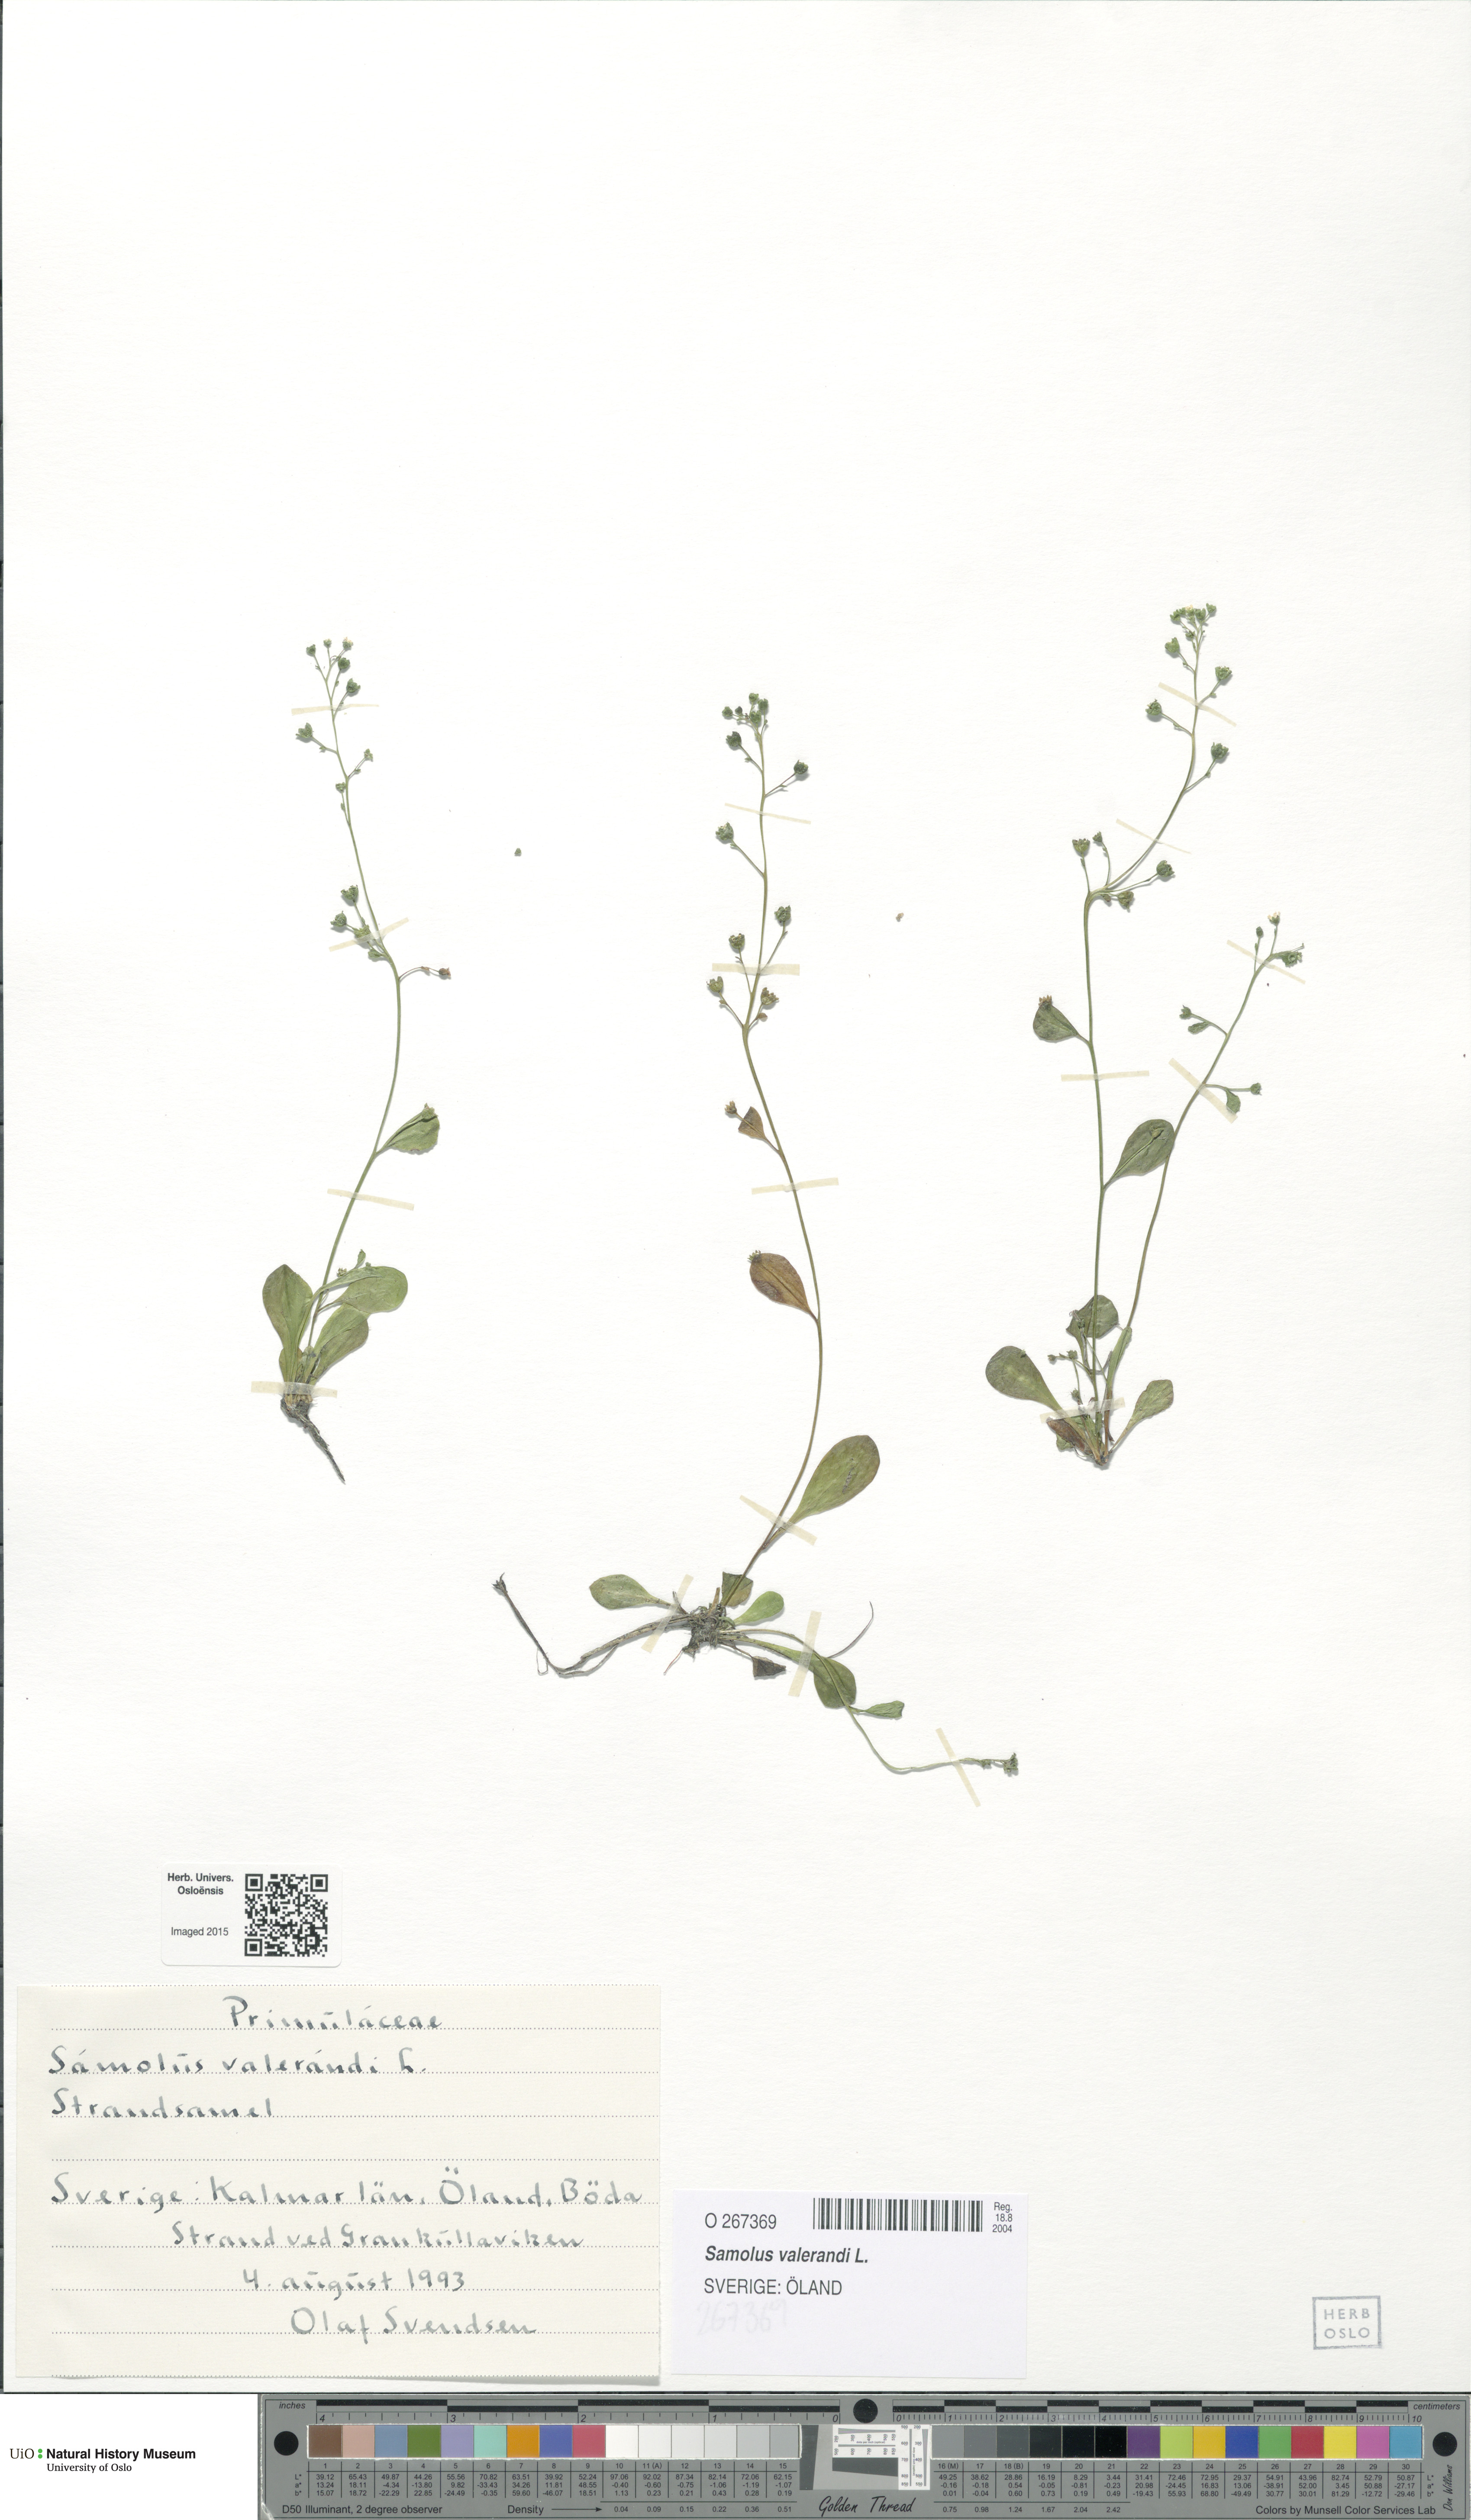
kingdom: Plantae
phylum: Tracheophyta
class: Magnoliopsida
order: Ericales
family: Primulaceae
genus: Samolus
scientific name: Samolus valerandi
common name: Brookweed
